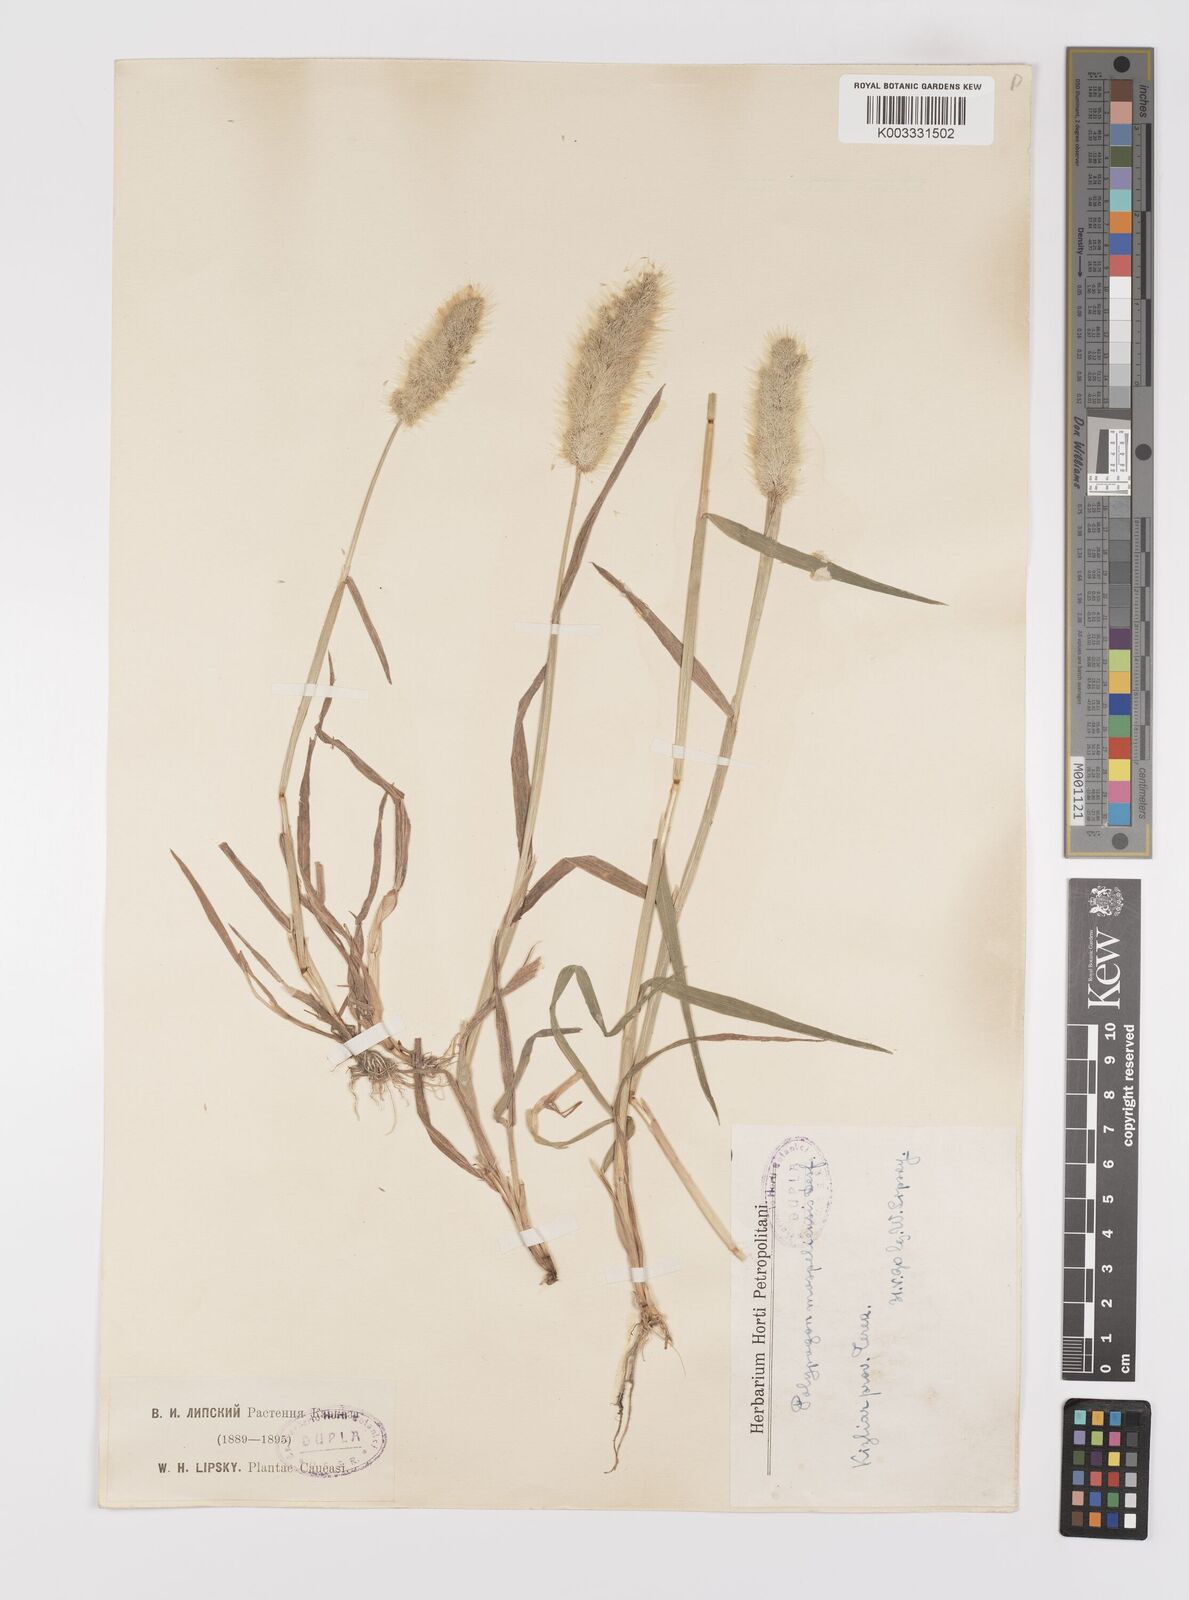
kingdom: Plantae
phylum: Tracheophyta
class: Liliopsida
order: Poales
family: Poaceae
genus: Polypogon
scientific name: Polypogon monspeliensis
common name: Annual rabbitsfoot grass
